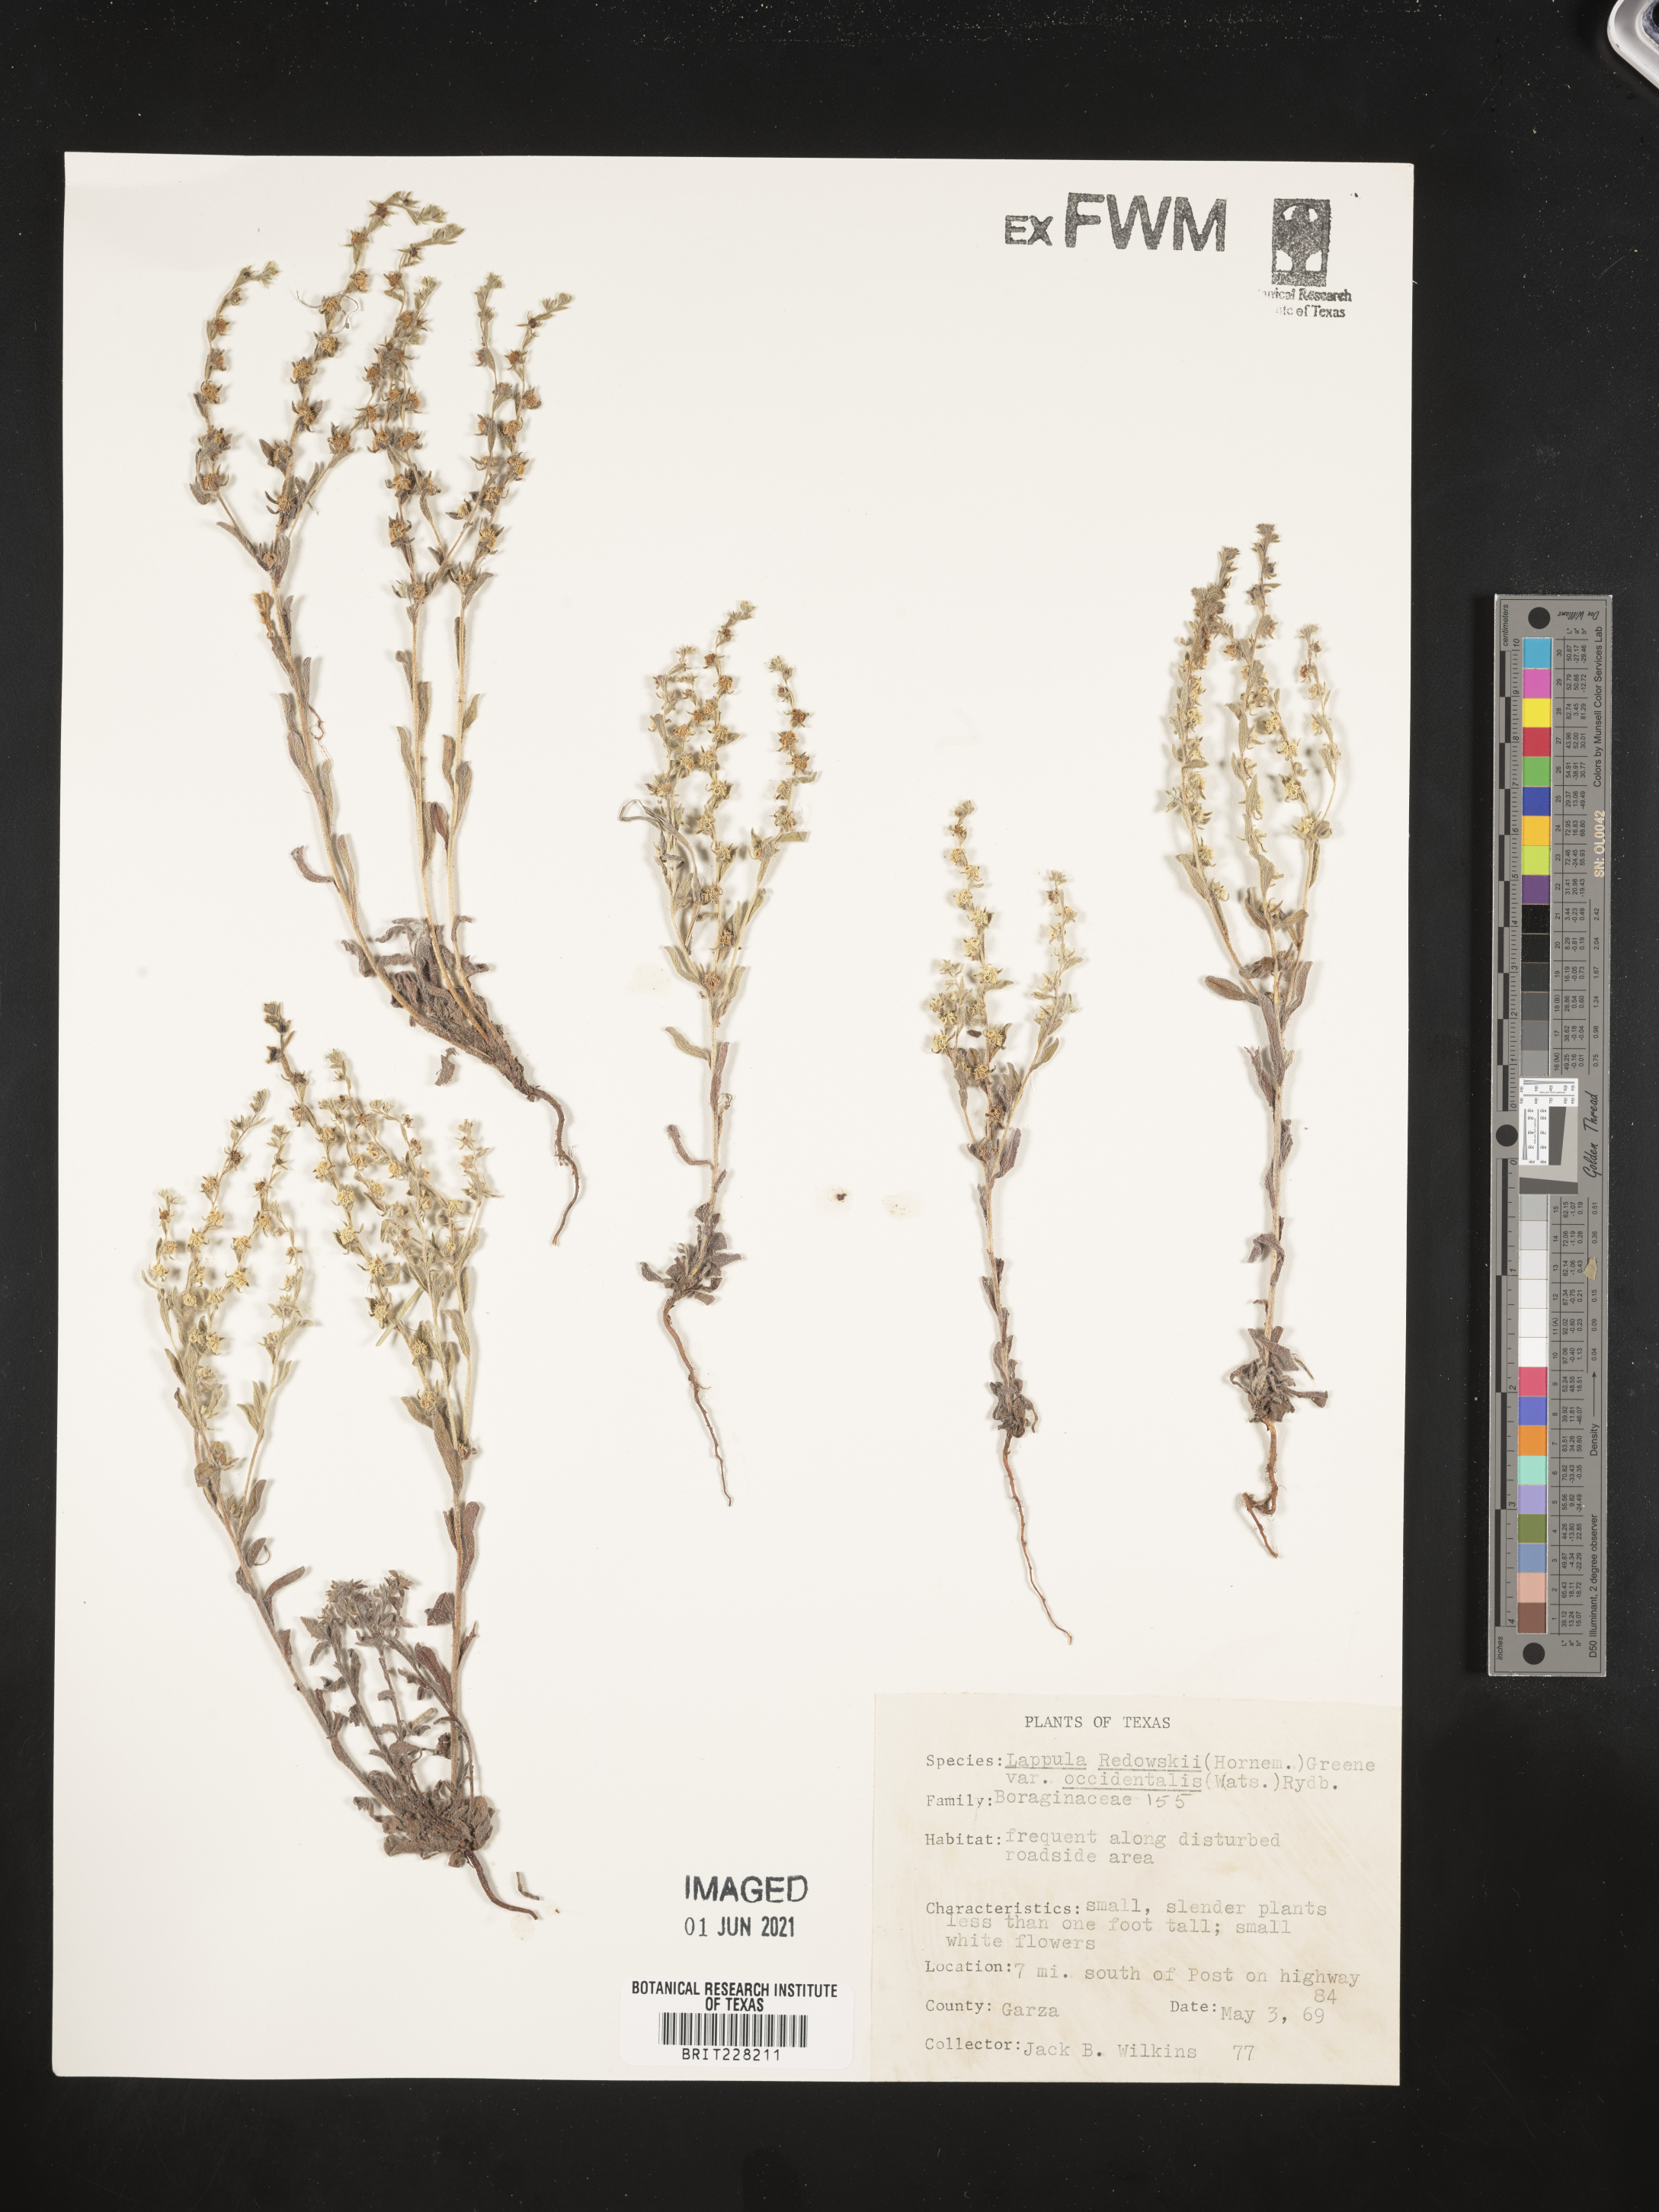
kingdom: Plantae
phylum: Tracheophyta
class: Magnoliopsida
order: Boraginales
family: Boraginaceae
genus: Lappula
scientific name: Lappula occidentalis
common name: Western stickseed
